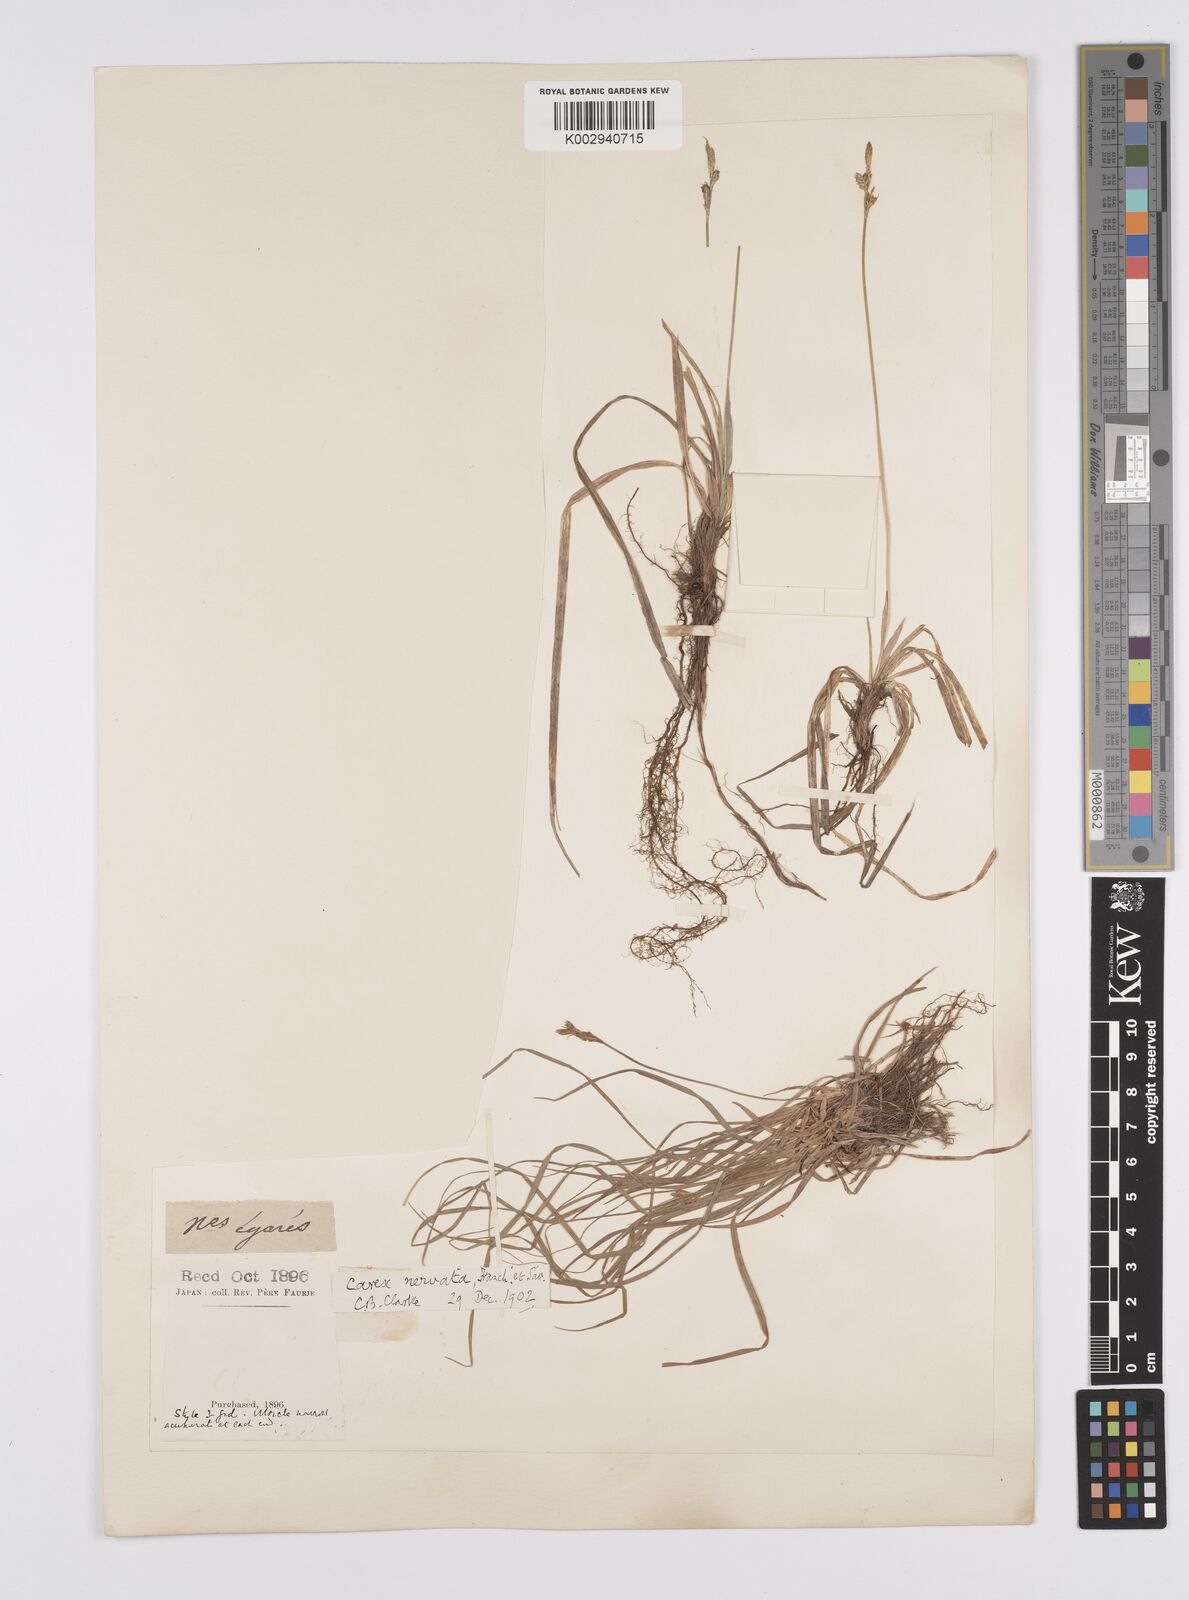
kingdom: Plantae
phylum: Tracheophyta
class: Liliopsida
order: Poales
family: Cyperaceae
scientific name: Cyperaceae
